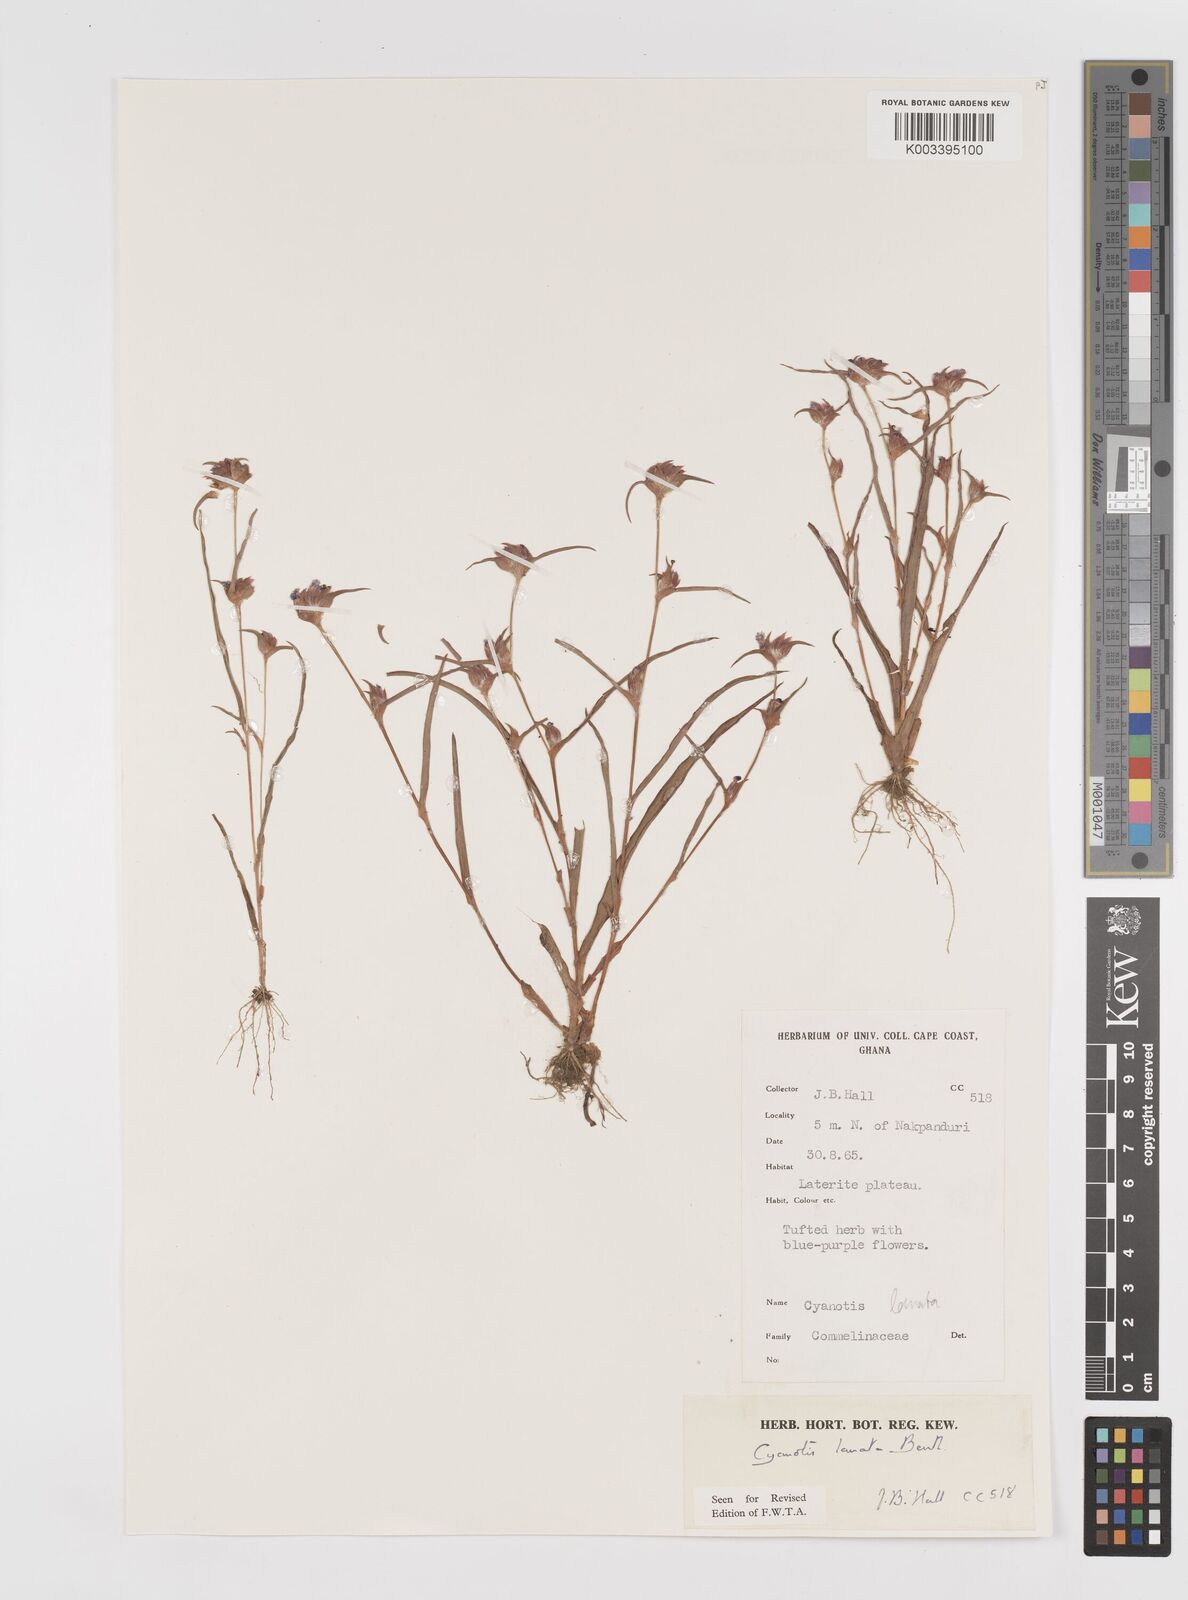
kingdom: Plantae
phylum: Tracheophyta
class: Liliopsida
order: Commelinales
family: Commelinaceae
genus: Cyanotis
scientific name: Cyanotis lanata
